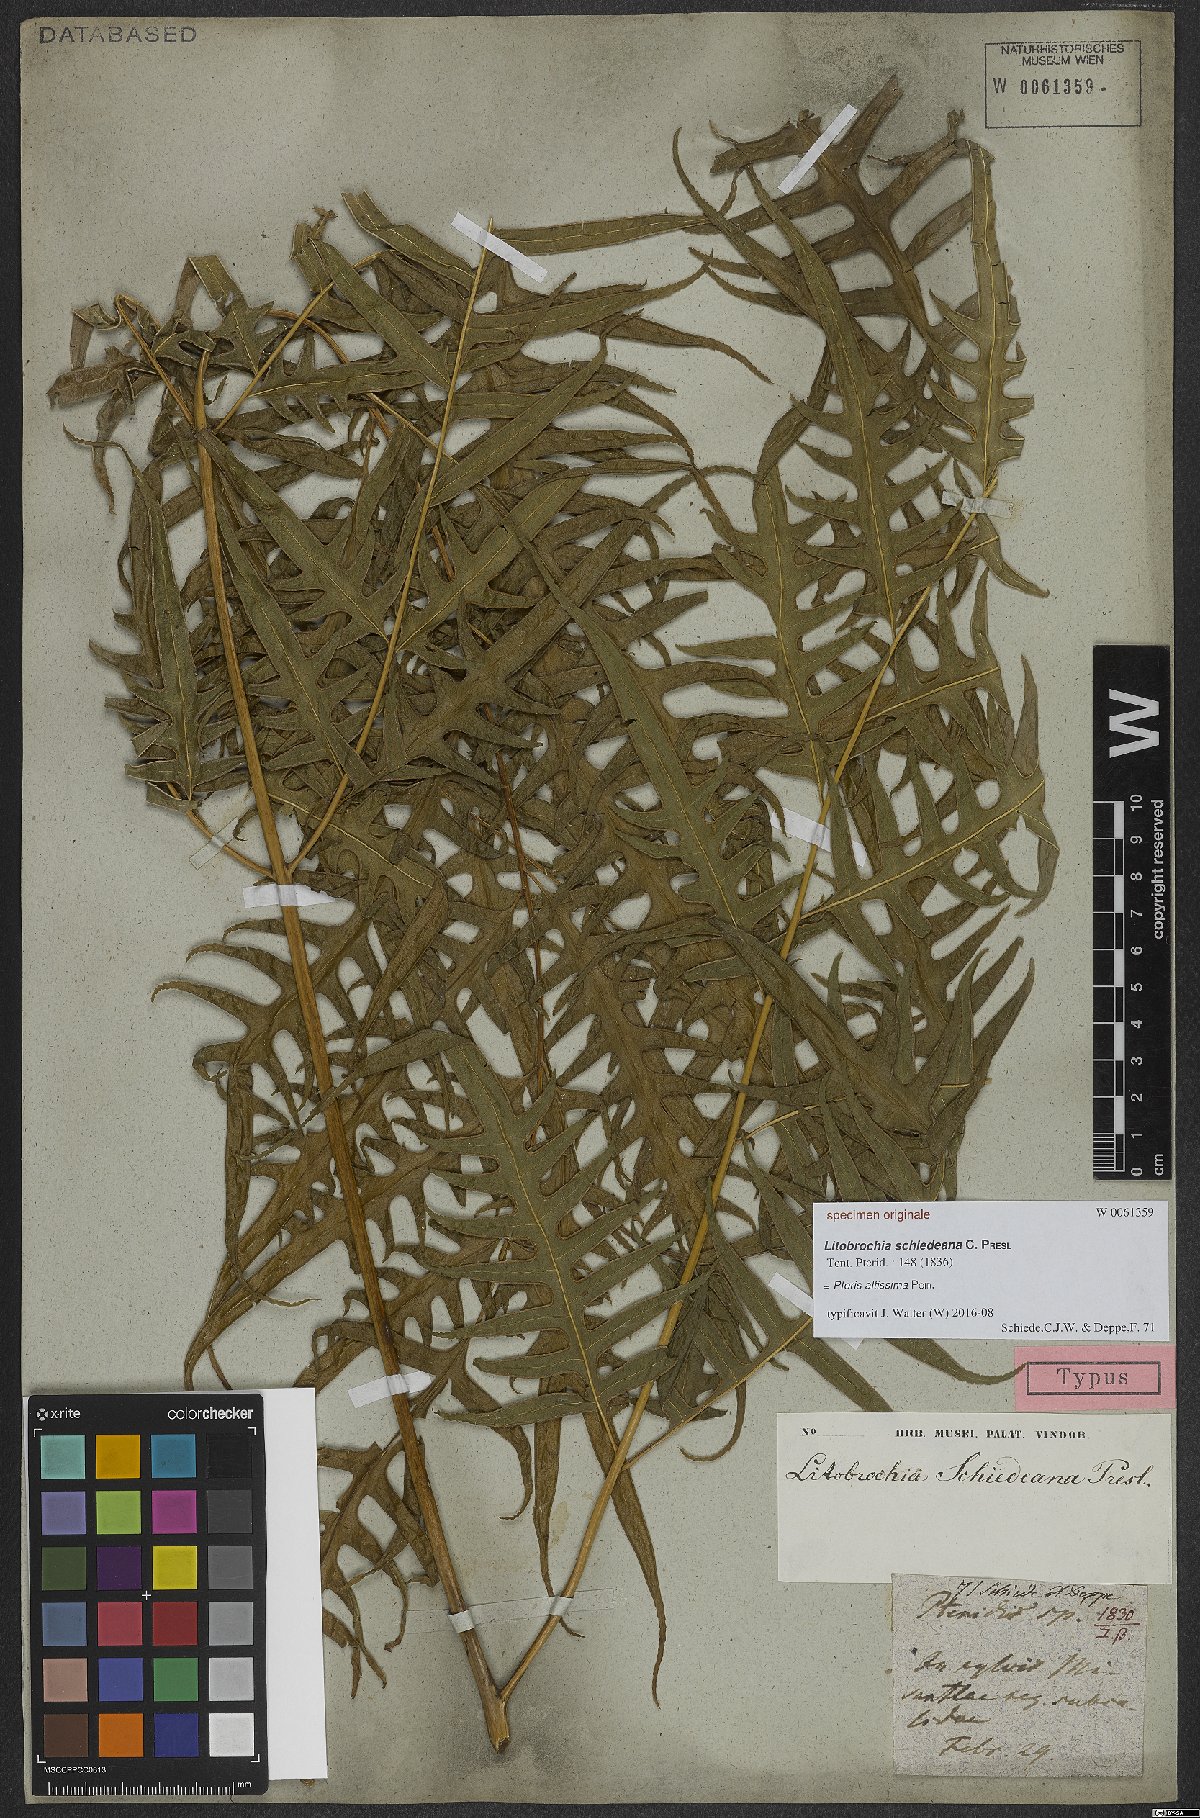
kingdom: Plantae
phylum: Tracheophyta
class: Polypodiopsida
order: Polypodiales
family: Pteridaceae
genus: Pteris
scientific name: Pteris altissima
